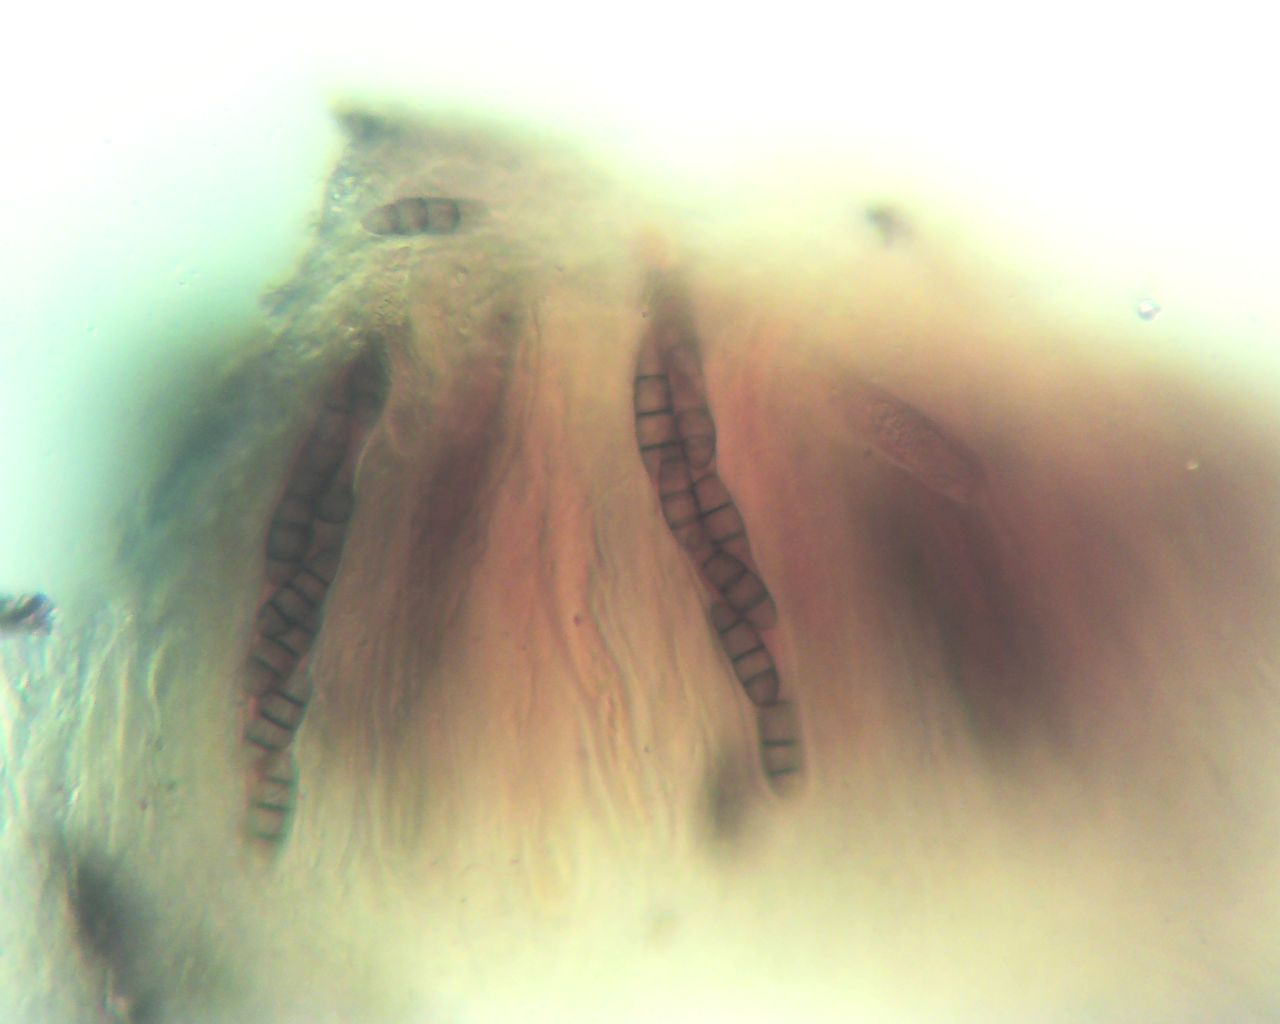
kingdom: Fungi
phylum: Ascomycota
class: Dothideomycetes
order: Hysteriales
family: Hysteriaceae
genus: Hysterium
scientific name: Hysterium acuminatum
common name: almindelig kulmund
